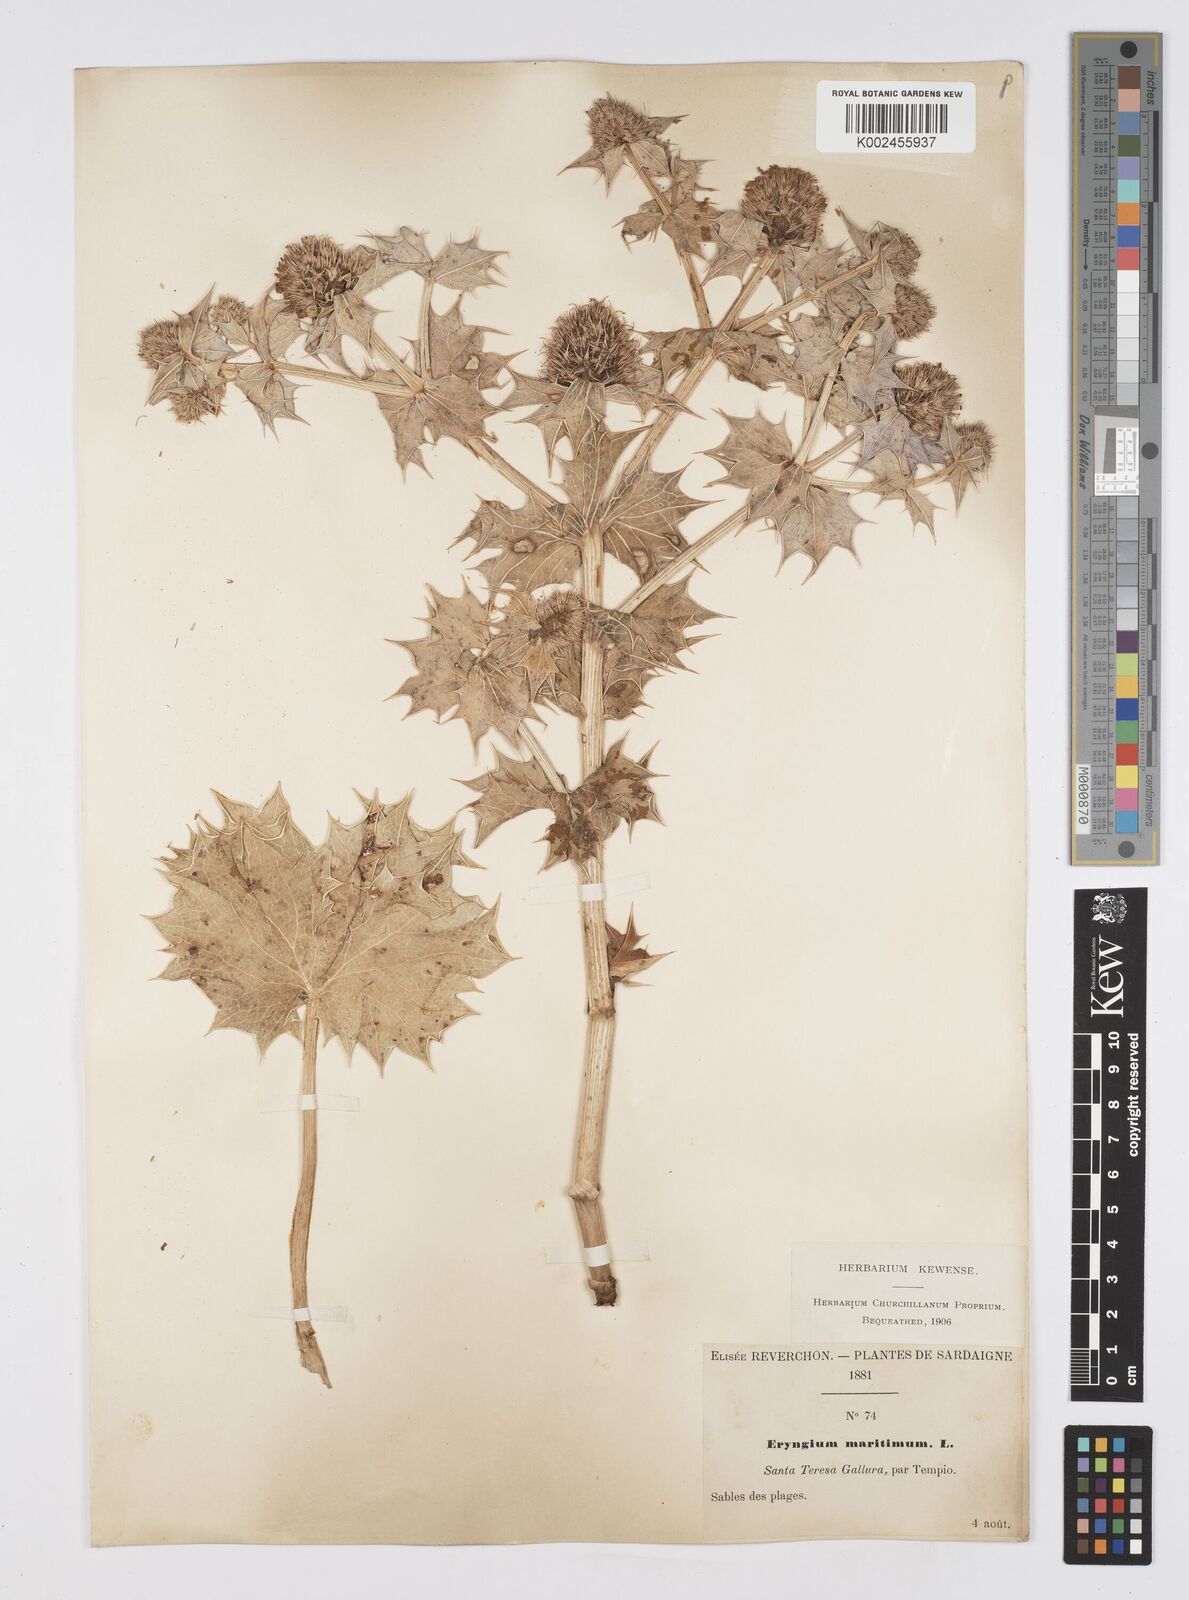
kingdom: Plantae
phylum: Tracheophyta
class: Magnoliopsida
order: Apiales
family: Apiaceae
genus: Eryngium
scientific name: Eryngium maritimum
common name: Sea-holly
